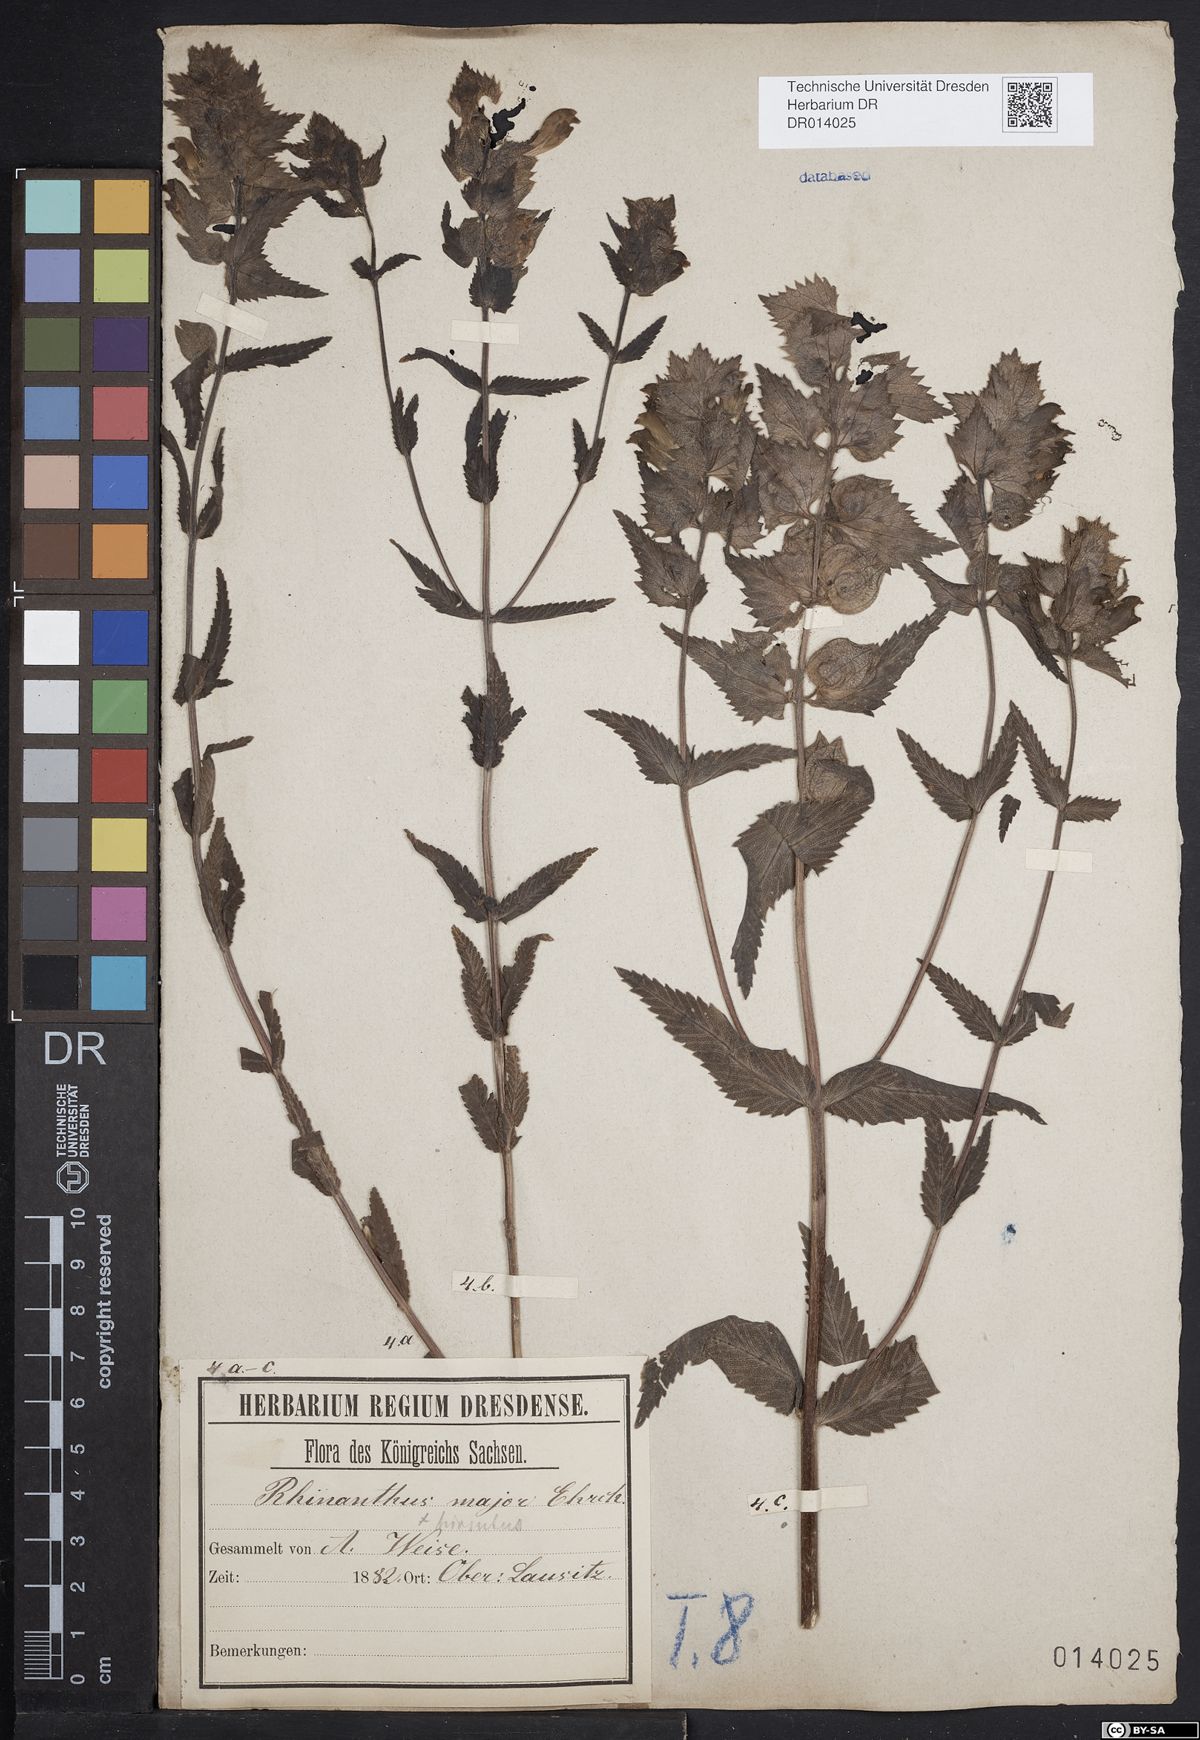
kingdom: Plantae
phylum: Tracheophyta
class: Magnoliopsida
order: Lamiales
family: Orobanchaceae
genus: Rhinanthus
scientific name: Rhinanthus alectorolophus
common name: Greater yellow-rattle
